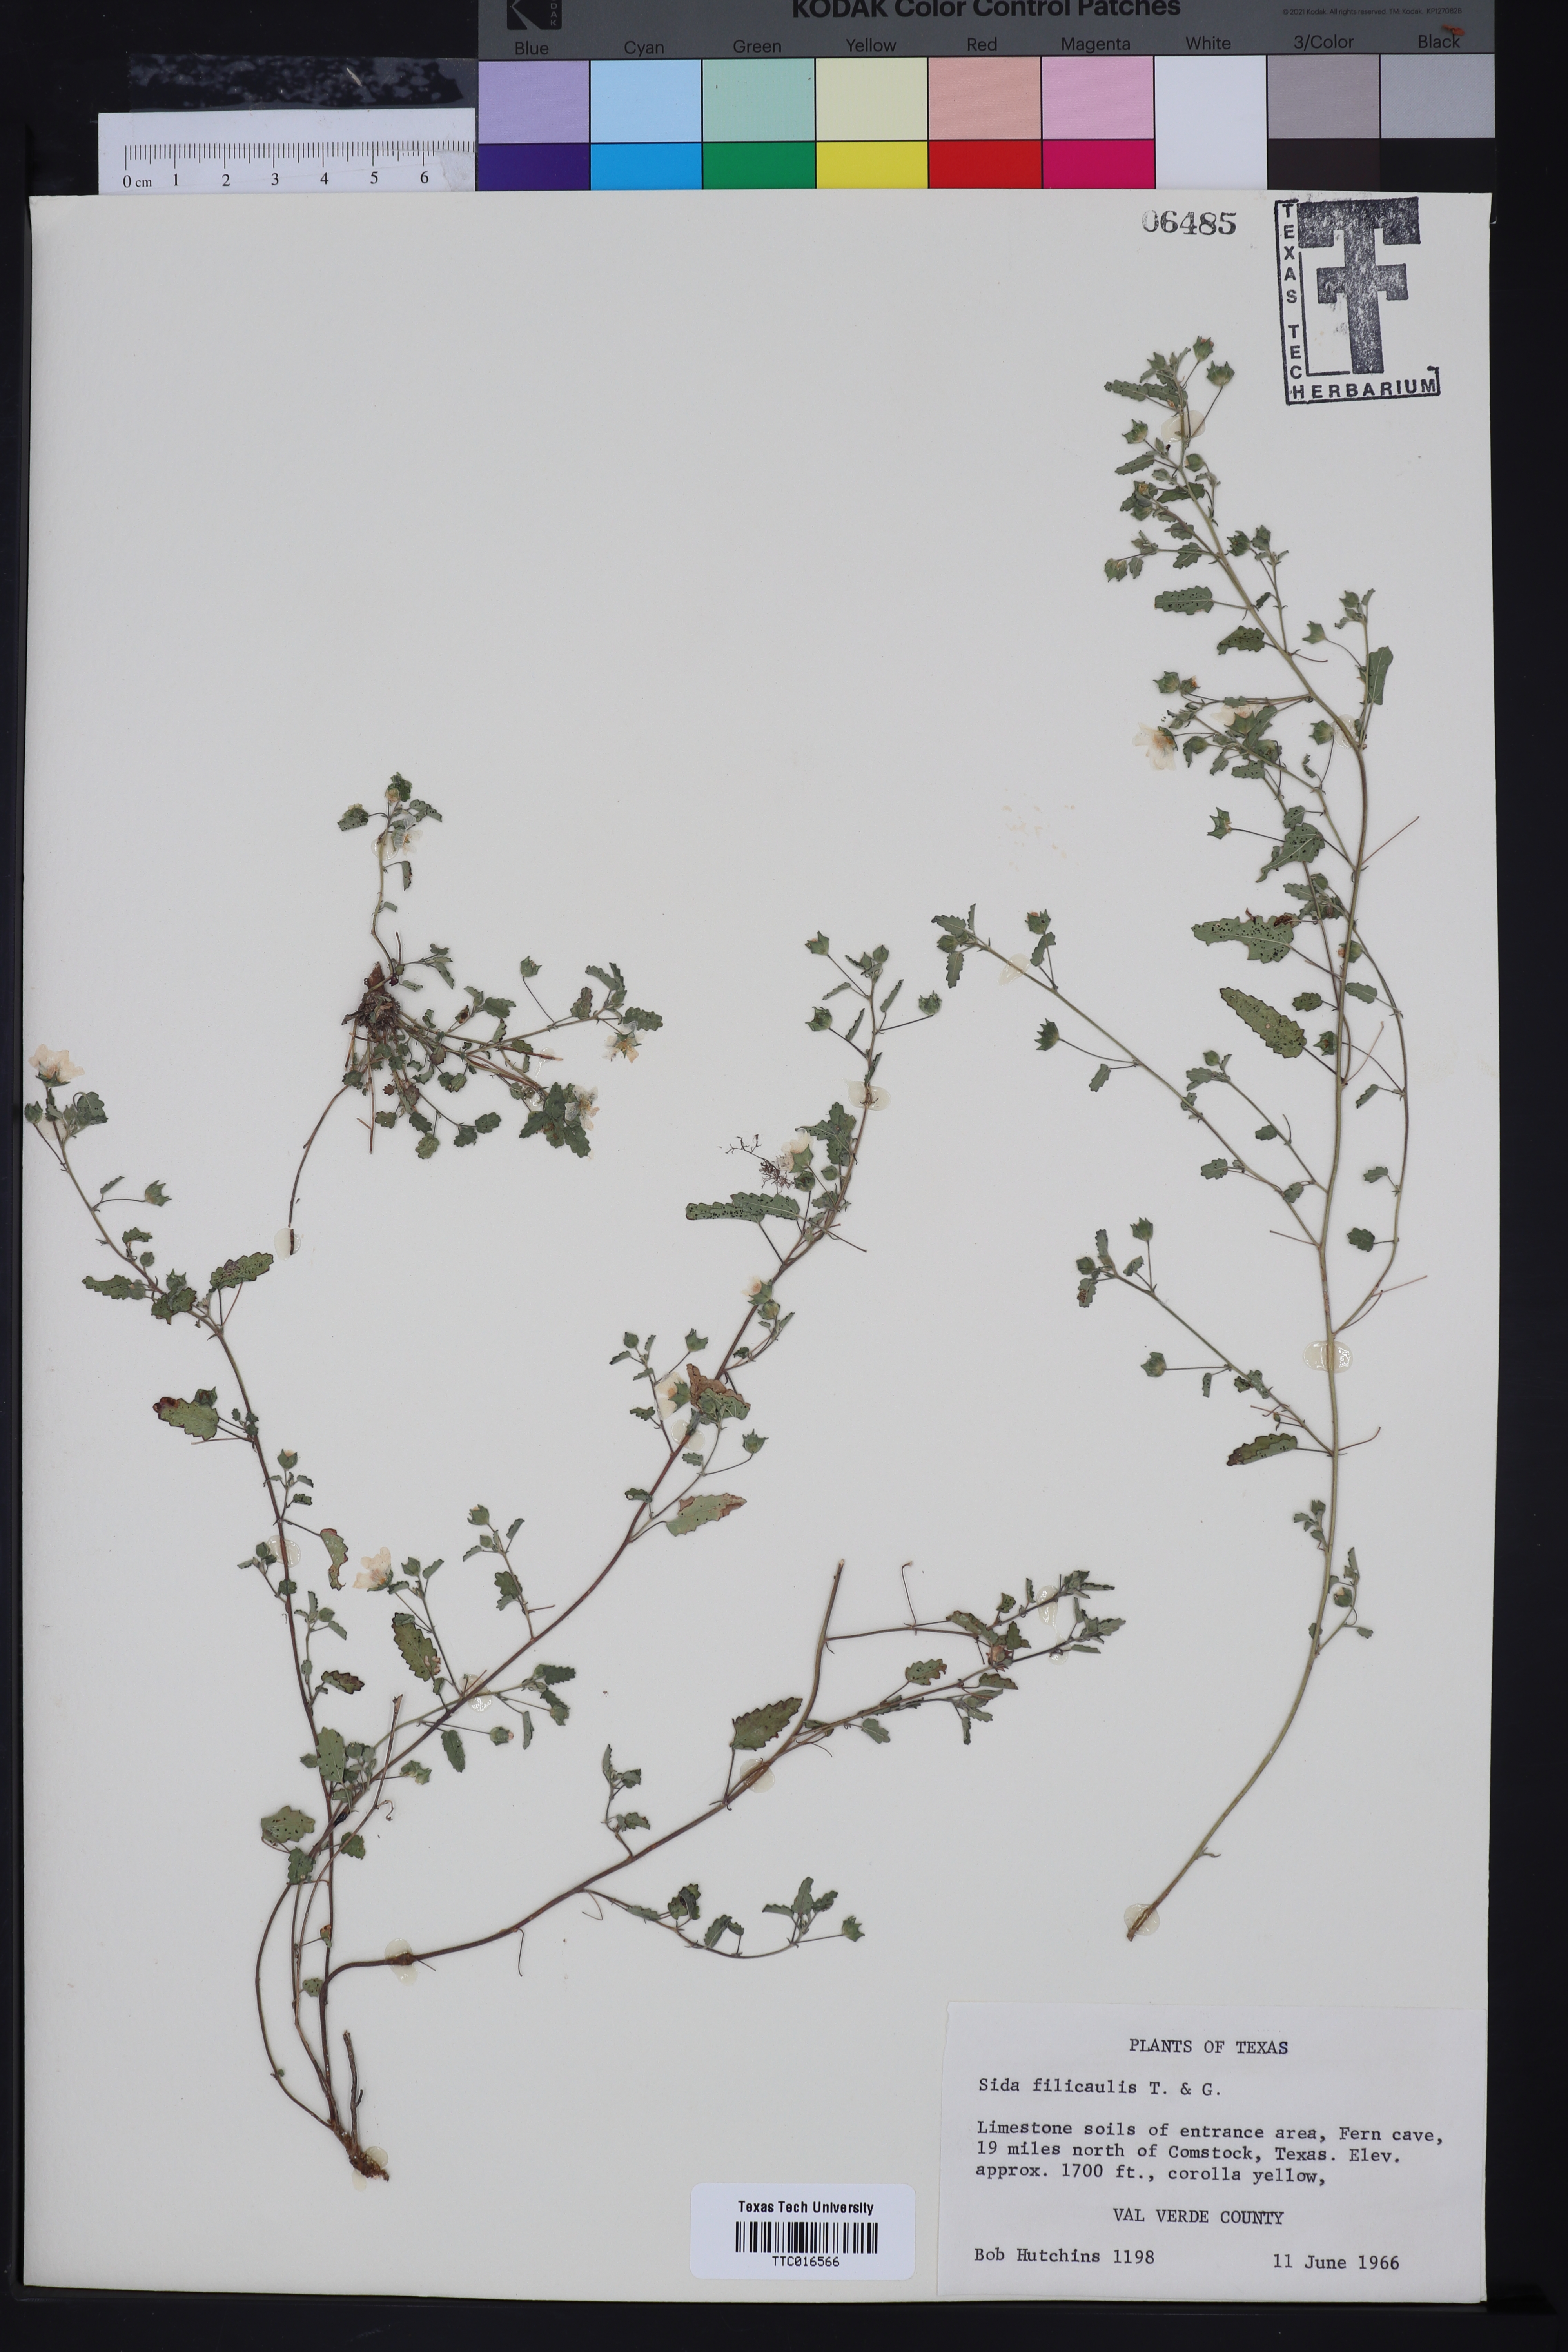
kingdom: Plantae
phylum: Tracheophyta
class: Magnoliopsida
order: Malvales
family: Malvaceae
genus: Sida
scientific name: Sida abutilifolia
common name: Spreading fanpetals
